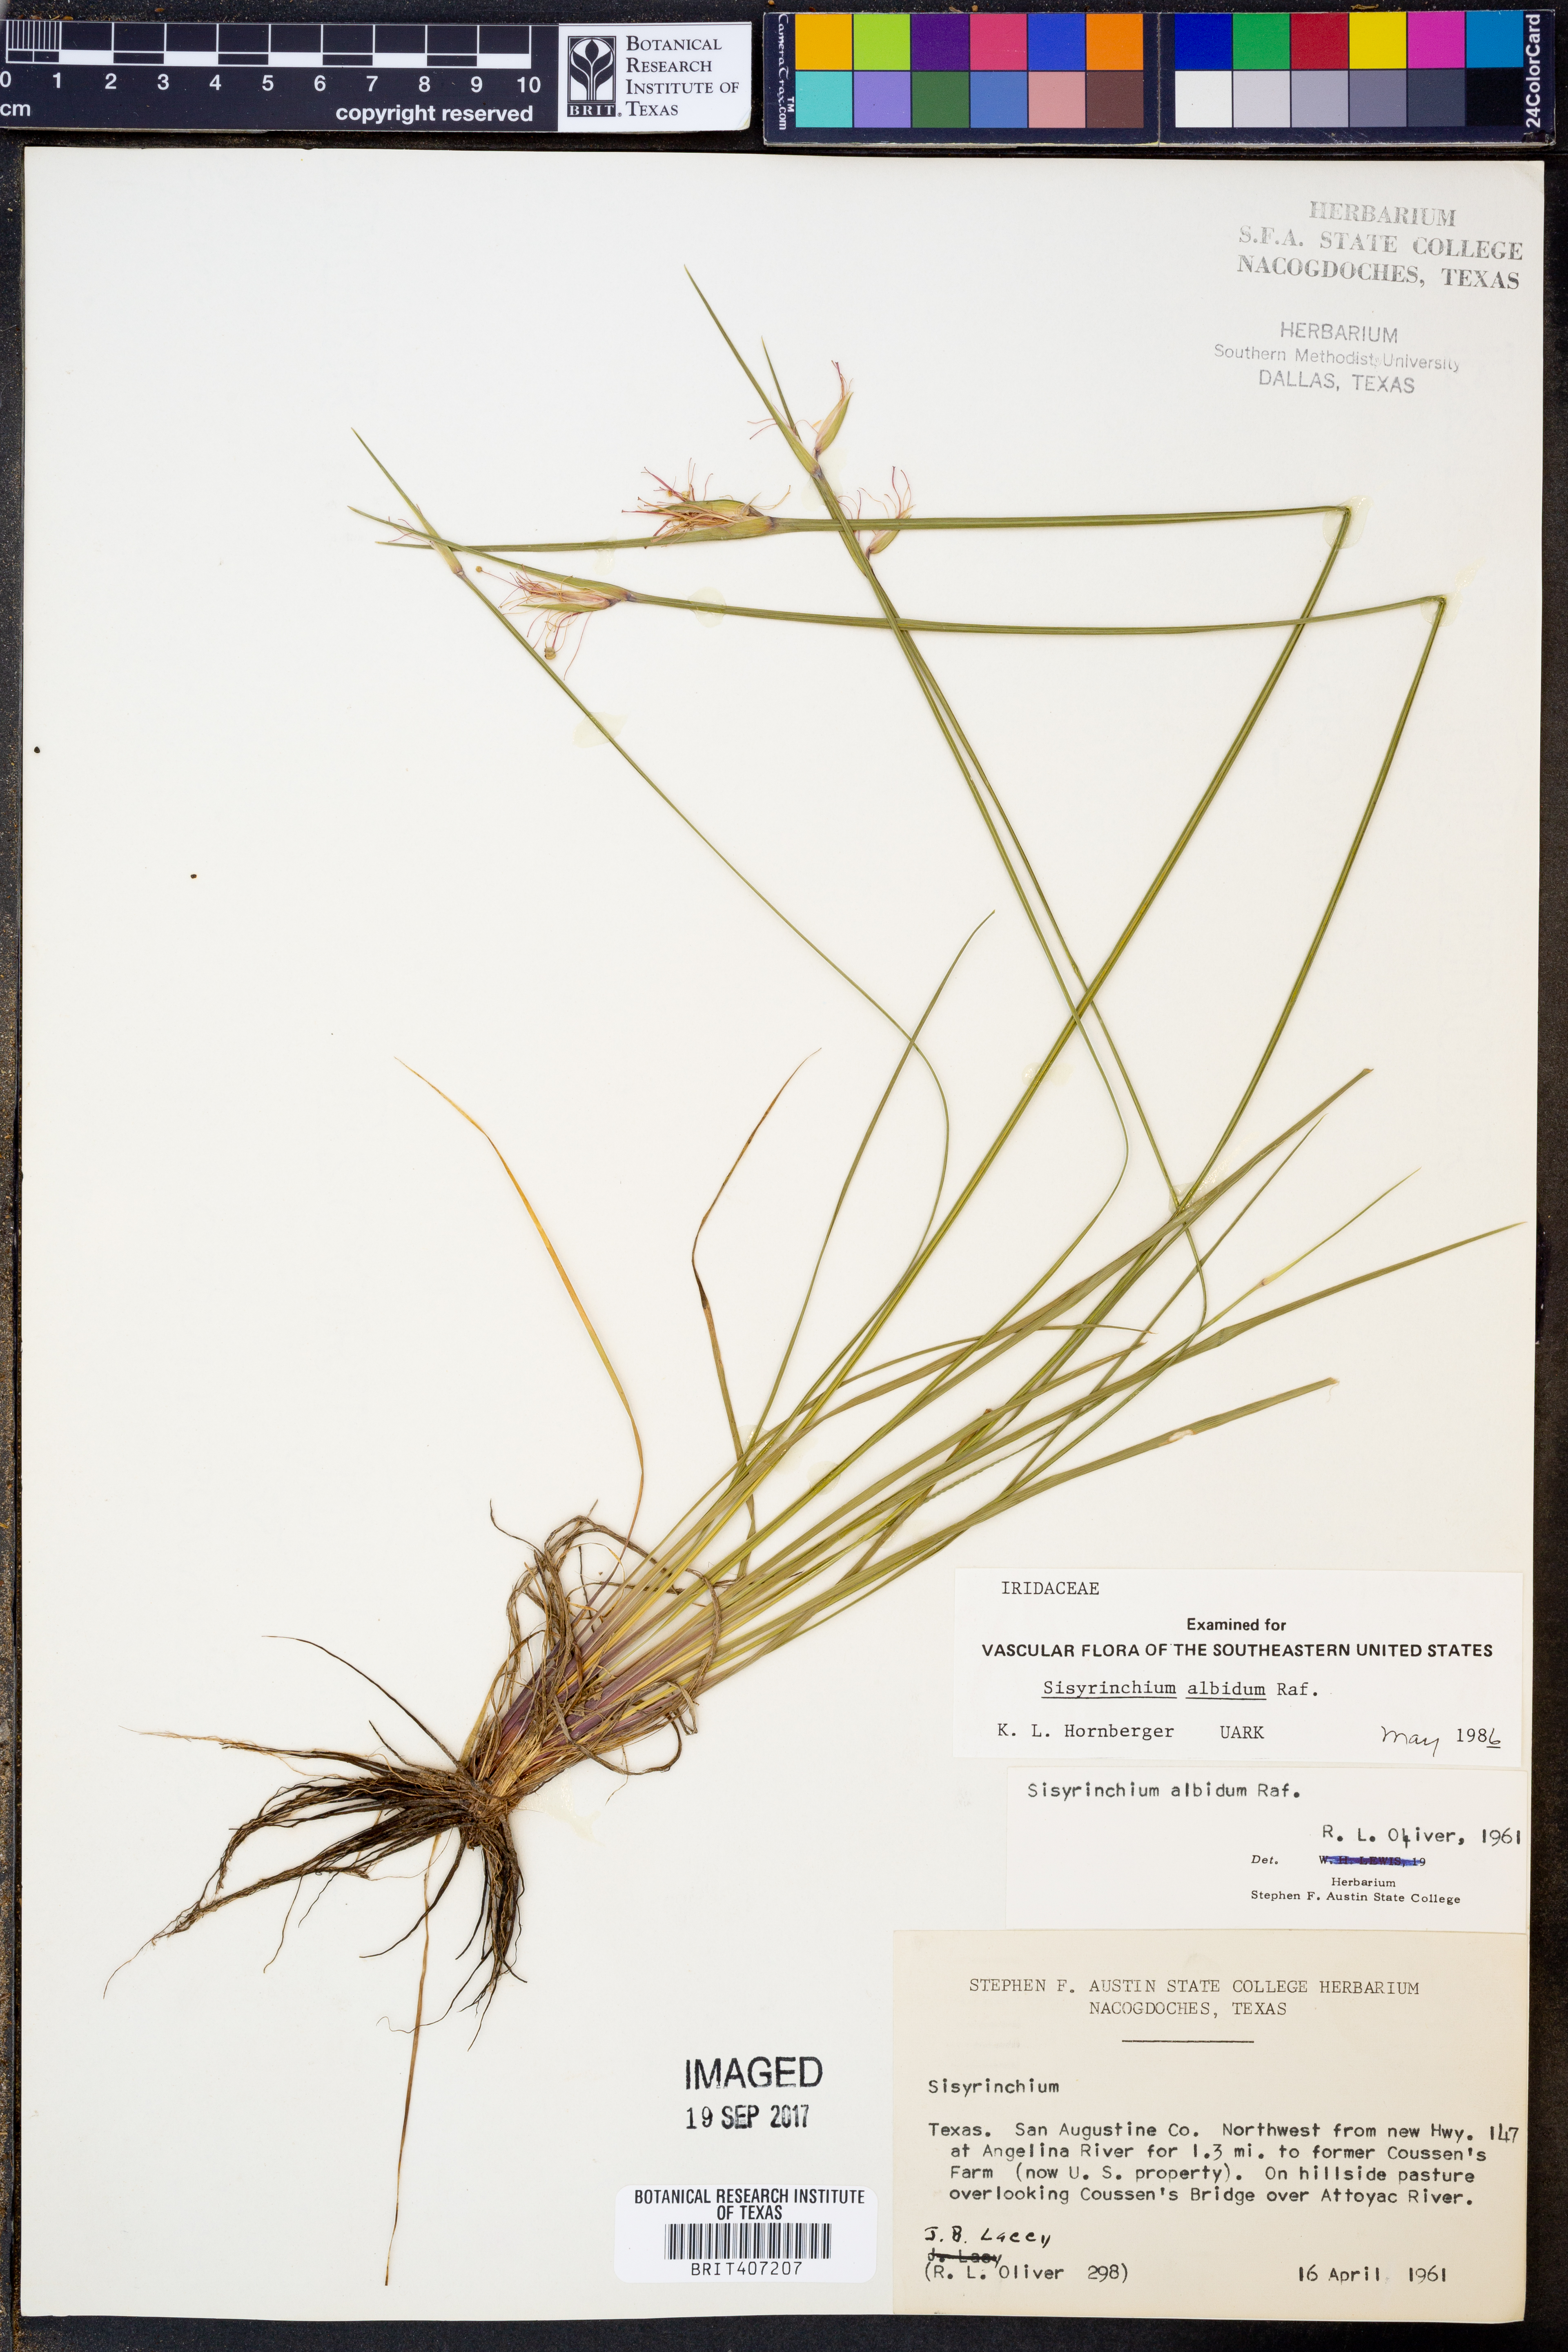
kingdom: Plantae
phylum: Tracheophyta
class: Liliopsida
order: Asparagales
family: Iridaceae
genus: Sisyrinchium
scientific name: Sisyrinchium albidum
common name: Pale blue-eyed-grass
